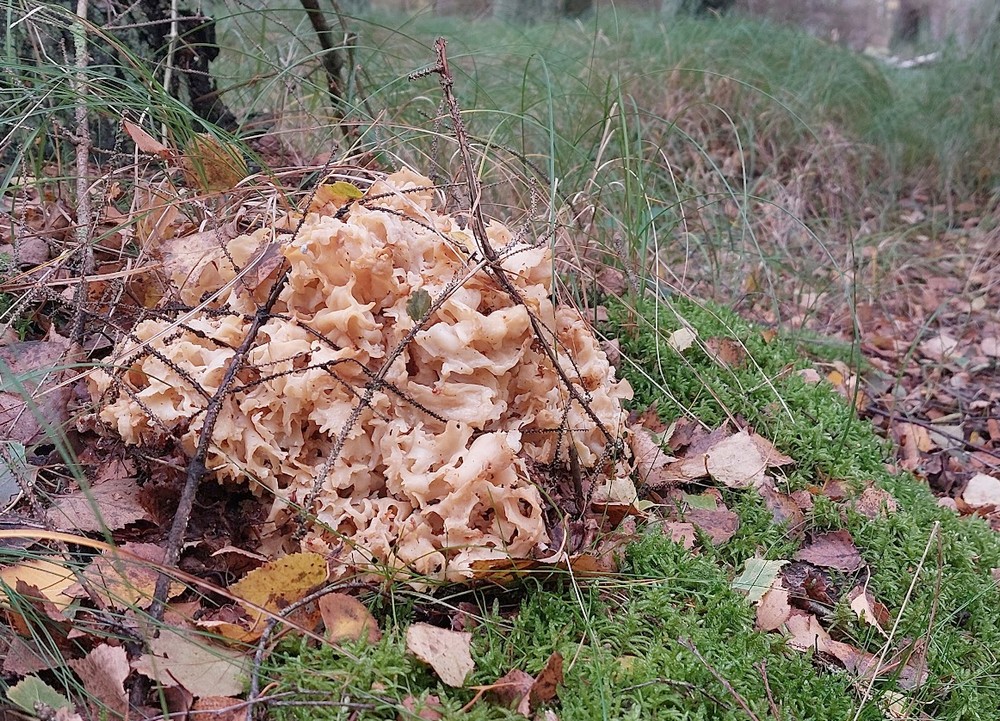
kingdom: Fungi
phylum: Basidiomycota
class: Agaricomycetes
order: Polyporales
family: Sparassidaceae
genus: Sparassis
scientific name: Sparassis crispa
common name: kruset blomkålssvamp
